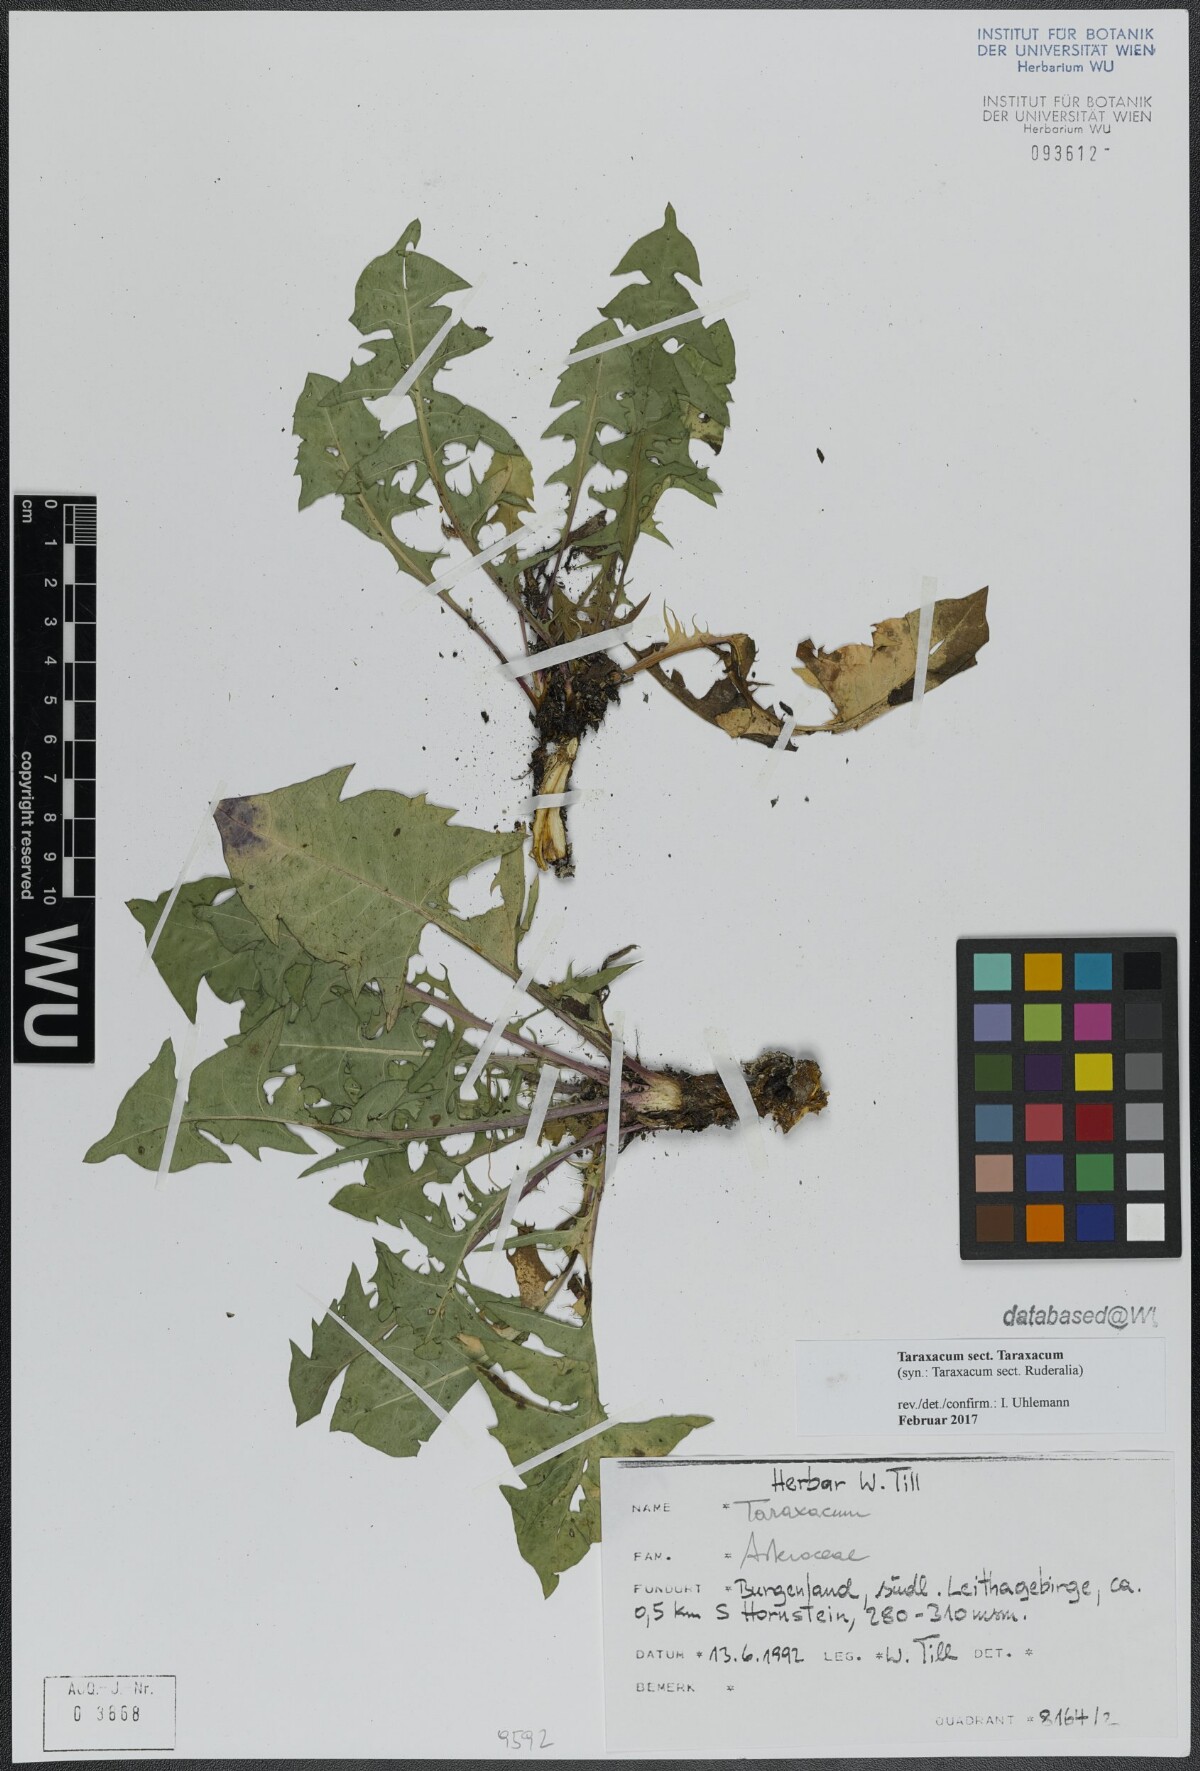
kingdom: Plantae
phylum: Tracheophyta
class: Magnoliopsida
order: Asterales
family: Asteraceae
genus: Taraxacum
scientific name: Taraxacum
